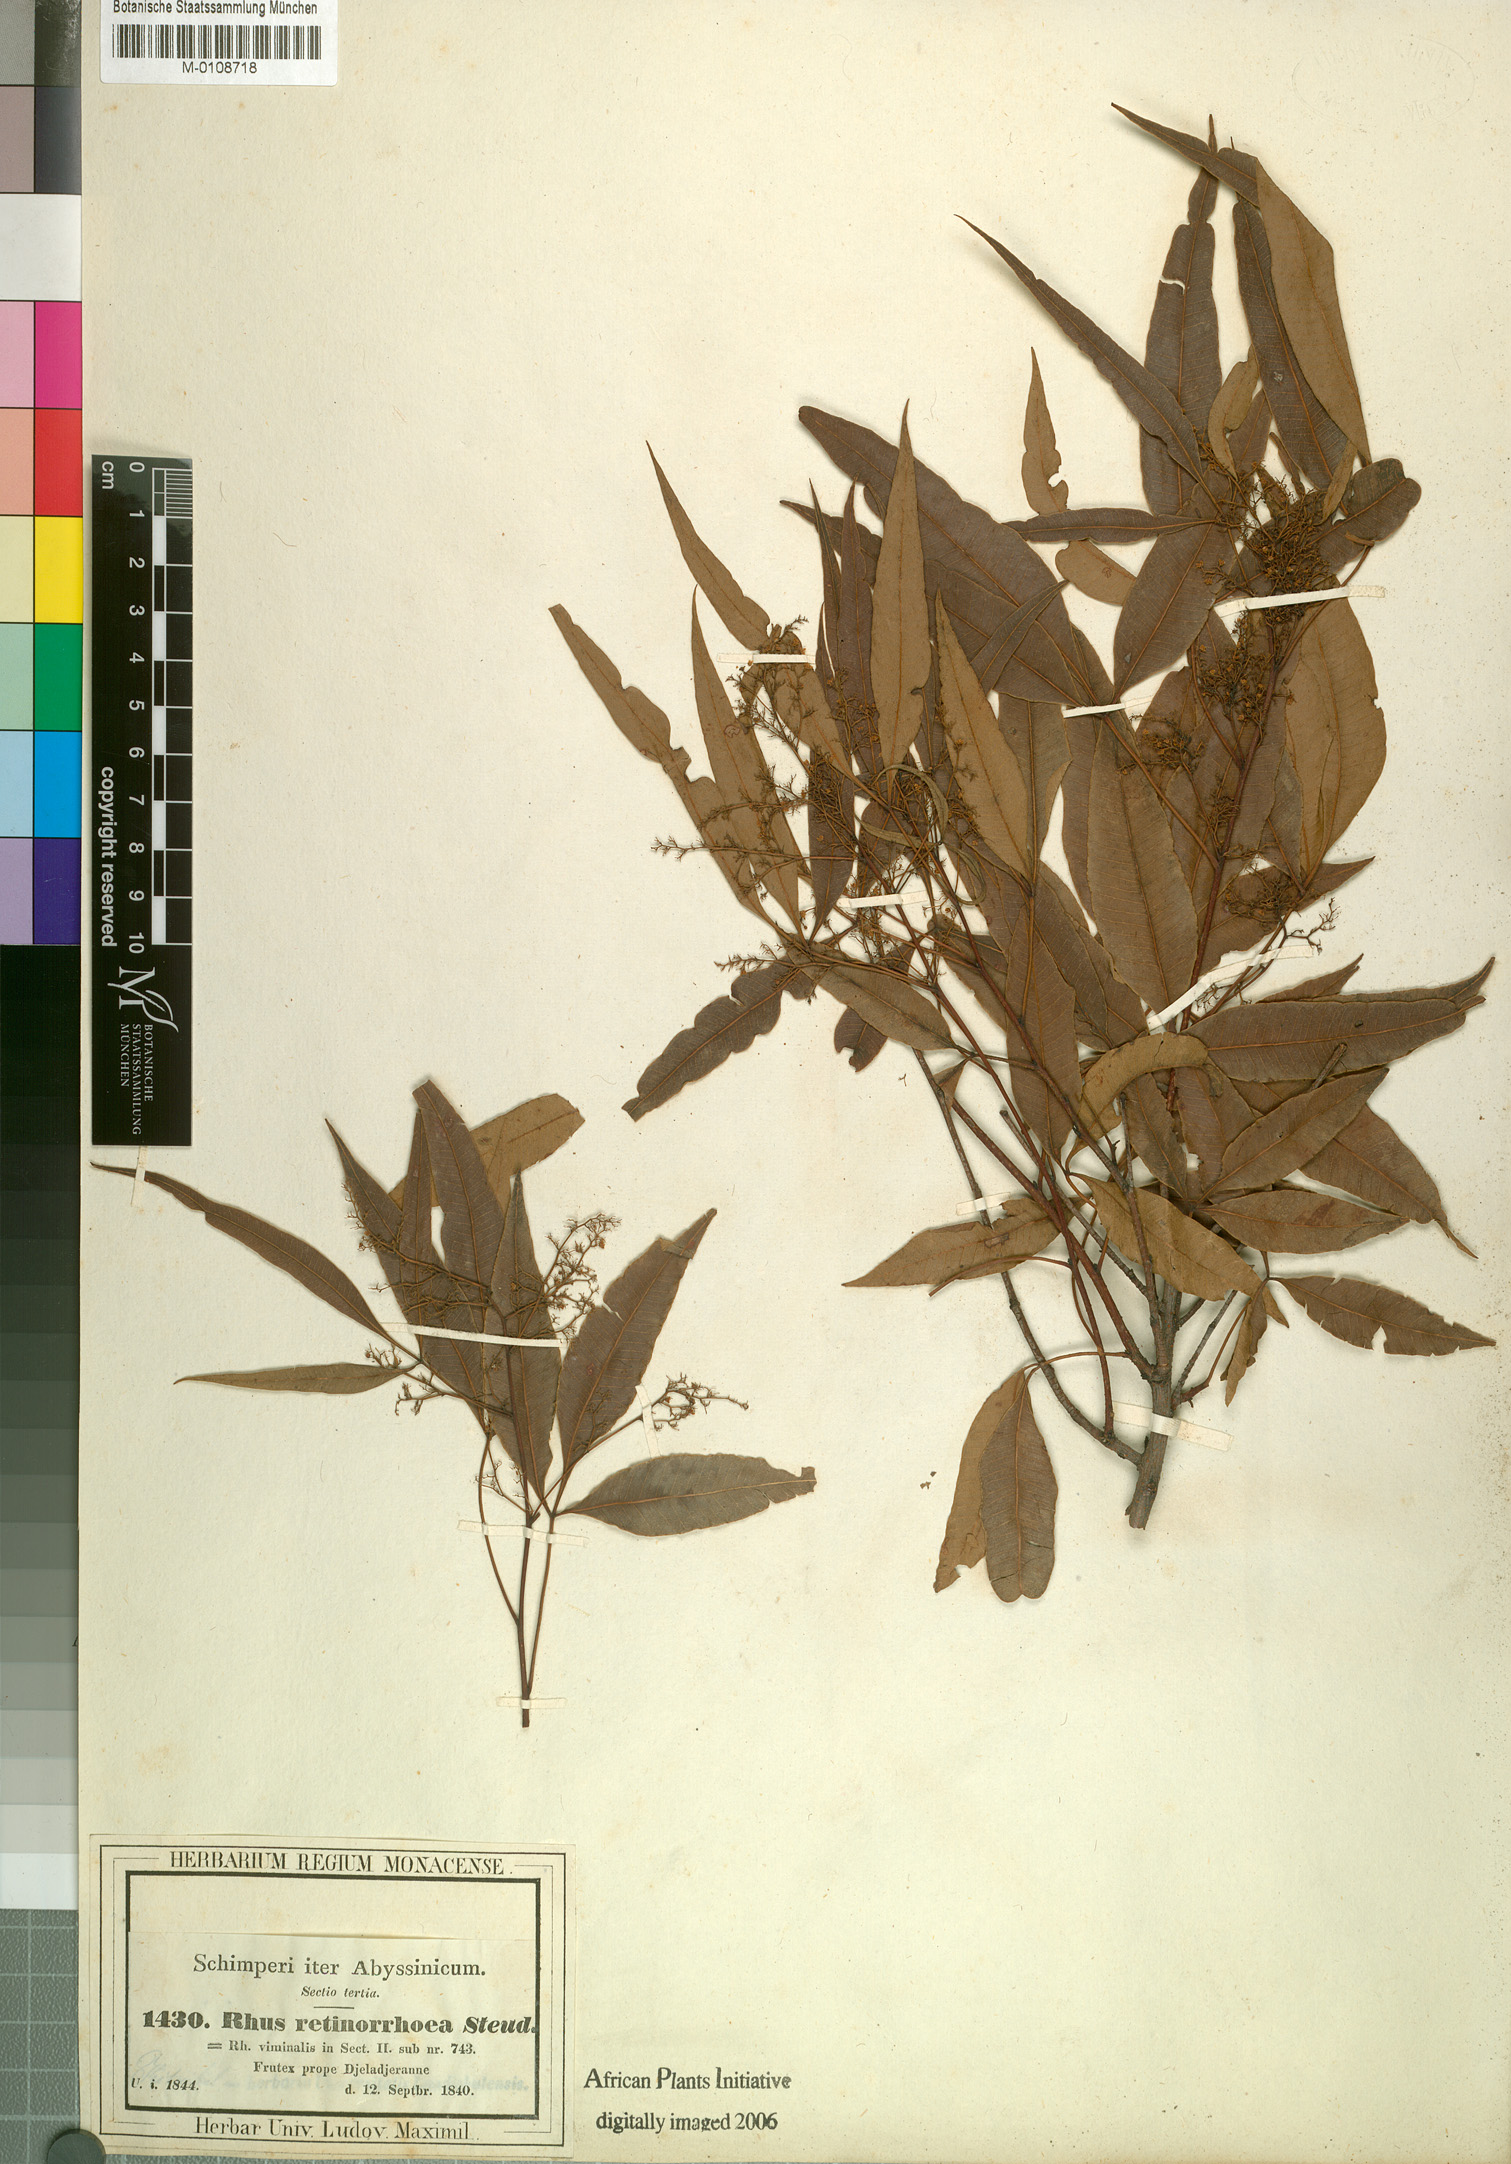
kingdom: Plantae
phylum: Tracheophyta
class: Magnoliopsida
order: Sapindales
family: Anacardiaceae
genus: Searsia
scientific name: Searsia laevigata
